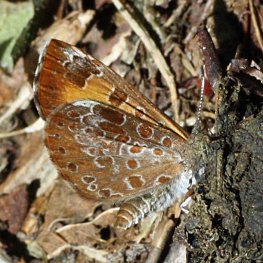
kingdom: Animalia
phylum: Arthropoda
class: Insecta
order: Lepidoptera
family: Lycaenidae
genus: Feniseca
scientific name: Feniseca tarquinius
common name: Harvester
